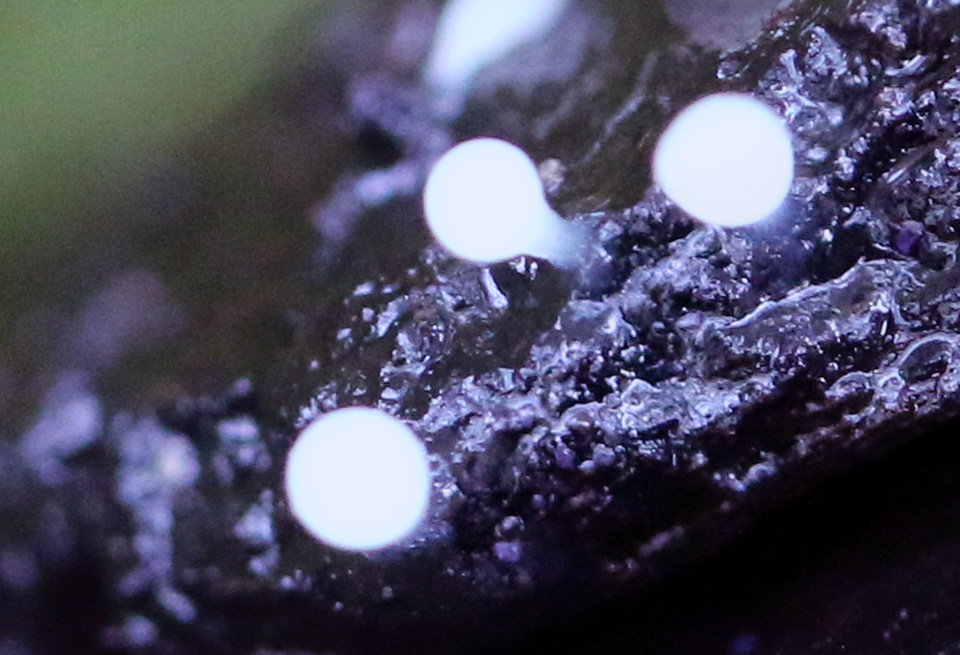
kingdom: Protozoa
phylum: Mycetozoa
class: Myxomycetes
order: Trichiales
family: Trichiaceae
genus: Trichia
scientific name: Trichia
